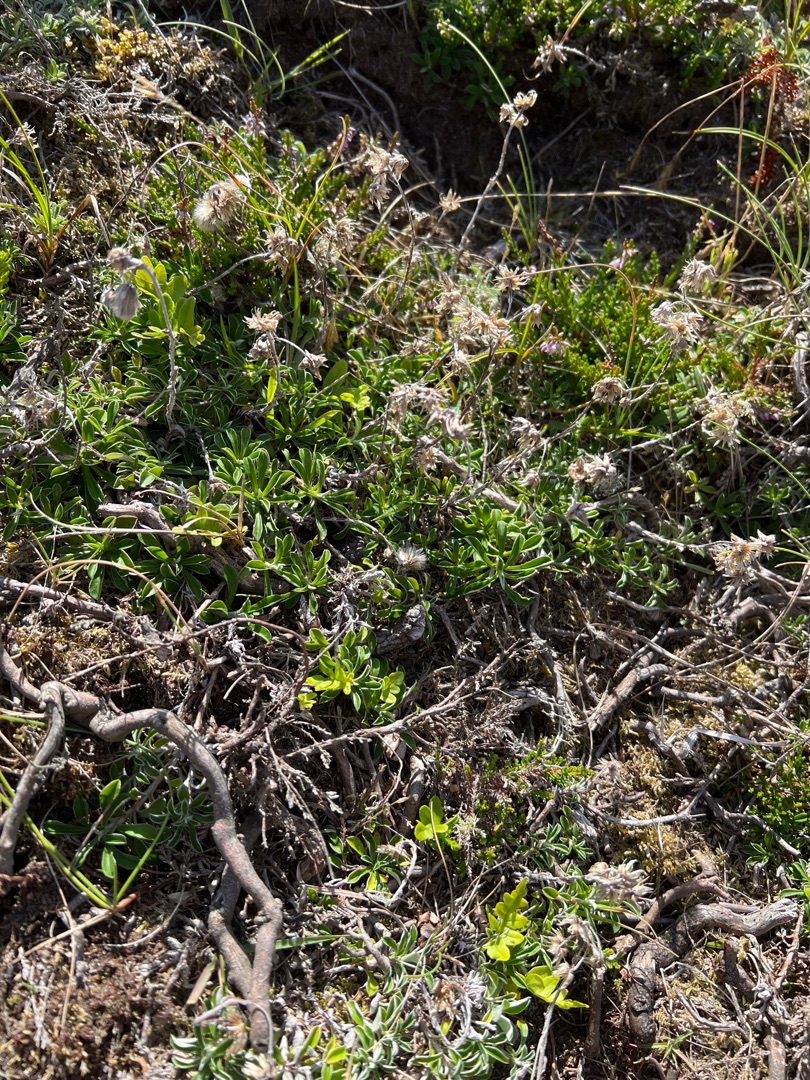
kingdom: Plantae
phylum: Tracheophyta
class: Magnoliopsida
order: Asterales
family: Asteraceae
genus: Antennaria
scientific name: Antennaria dioica
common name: Kattefod
